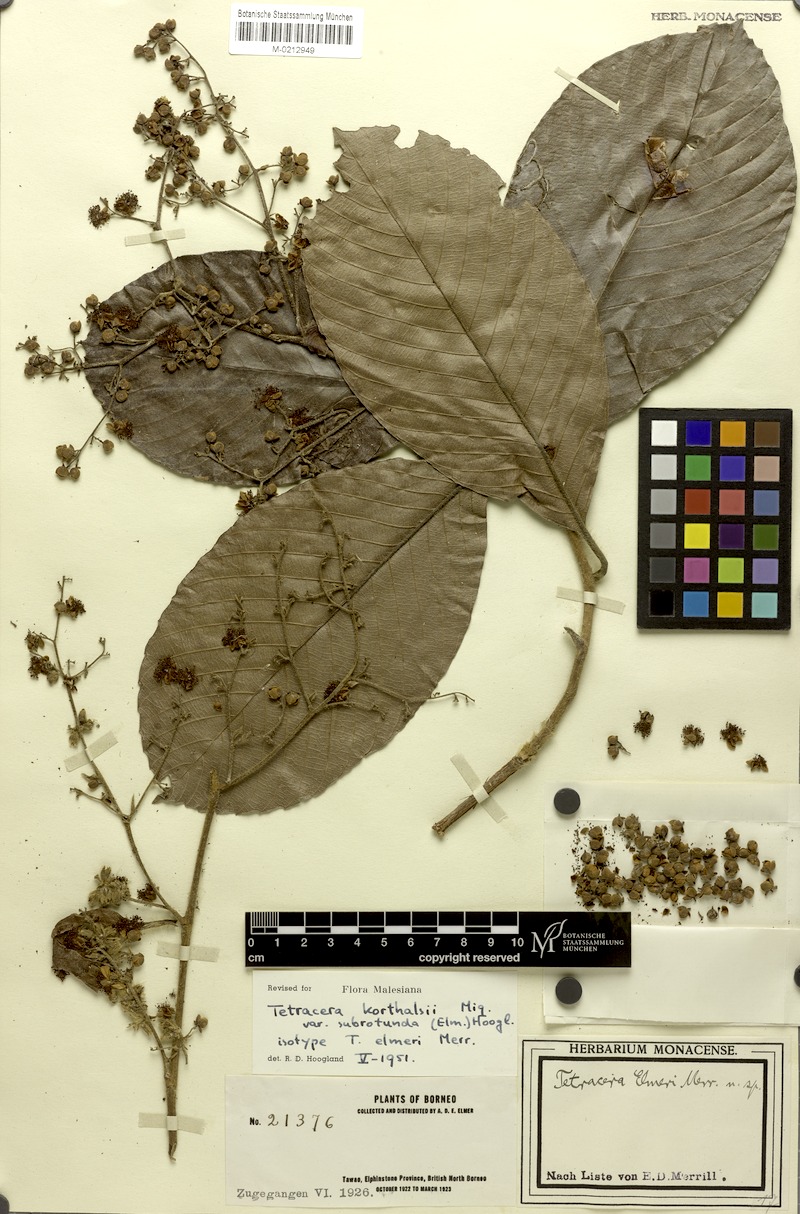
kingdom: Plantae
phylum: Tracheophyta
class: Magnoliopsida
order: Dilleniales
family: Dilleniaceae
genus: Tetracera
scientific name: Tetracera korthalsii
